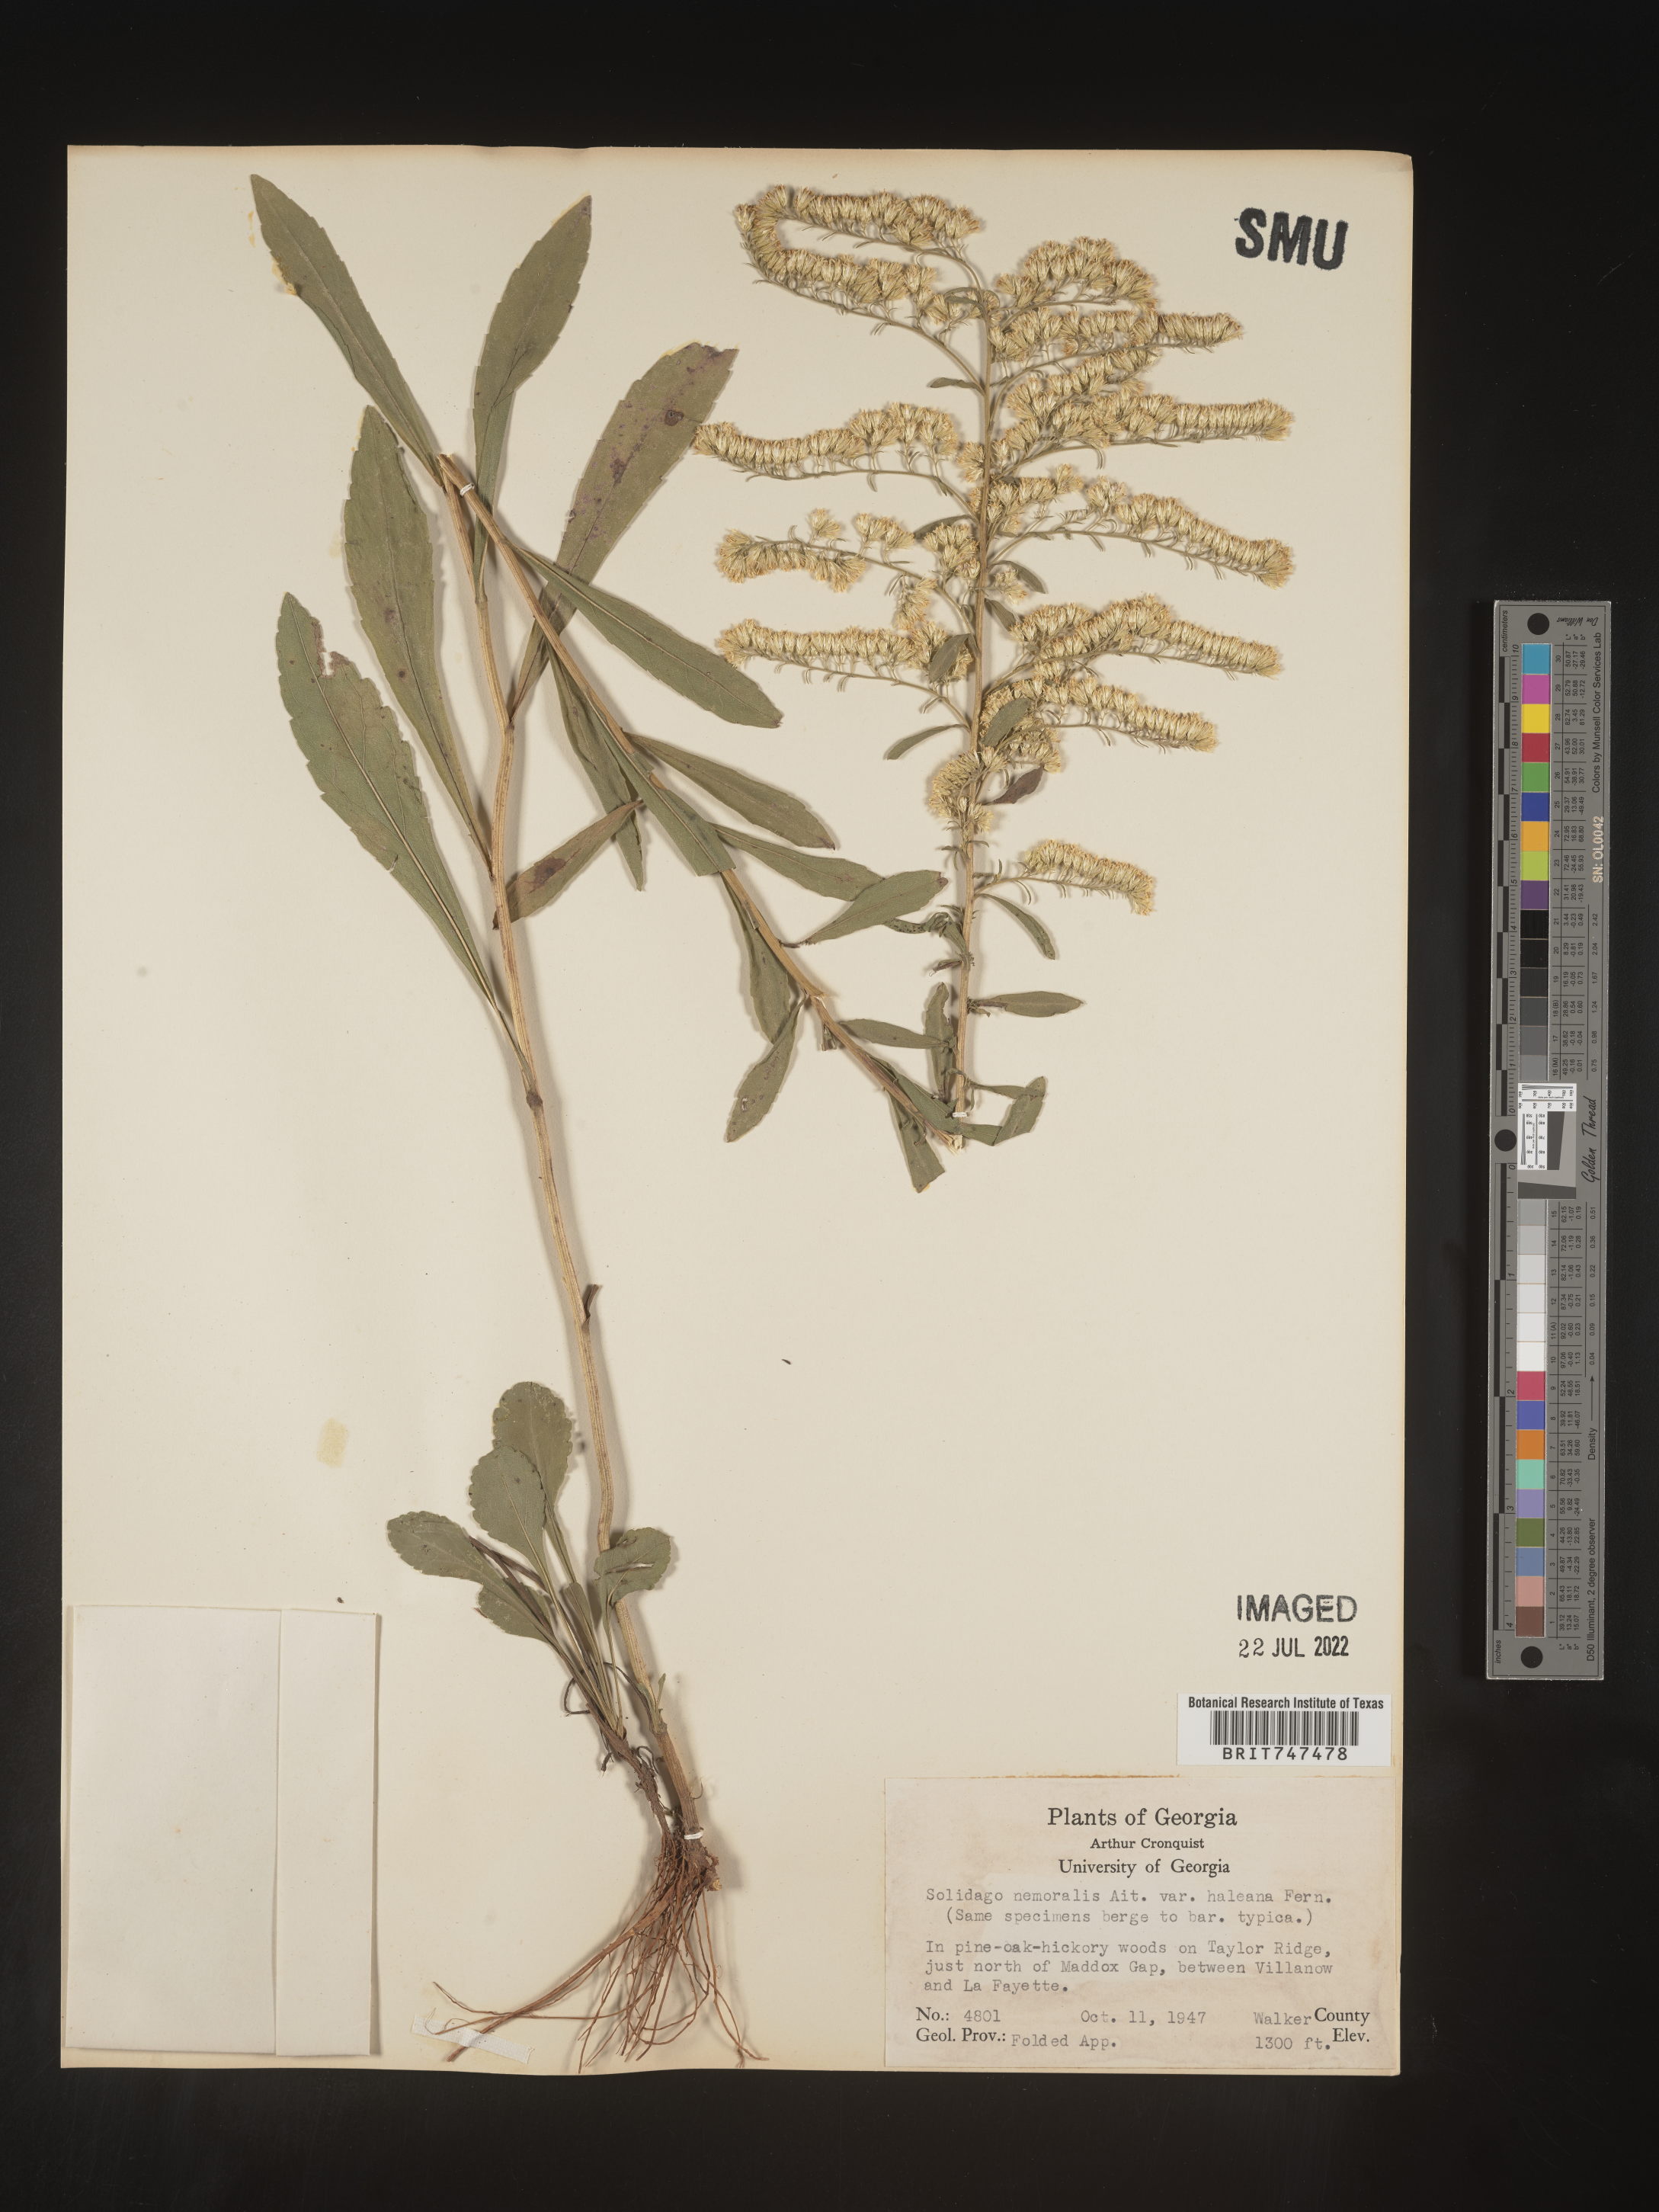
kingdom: Plantae
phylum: Tracheophyta
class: Magnoliopsida
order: Asterales
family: Asteraceae
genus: Solidago
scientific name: Solidago nemoralis
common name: Grey goldenrod
